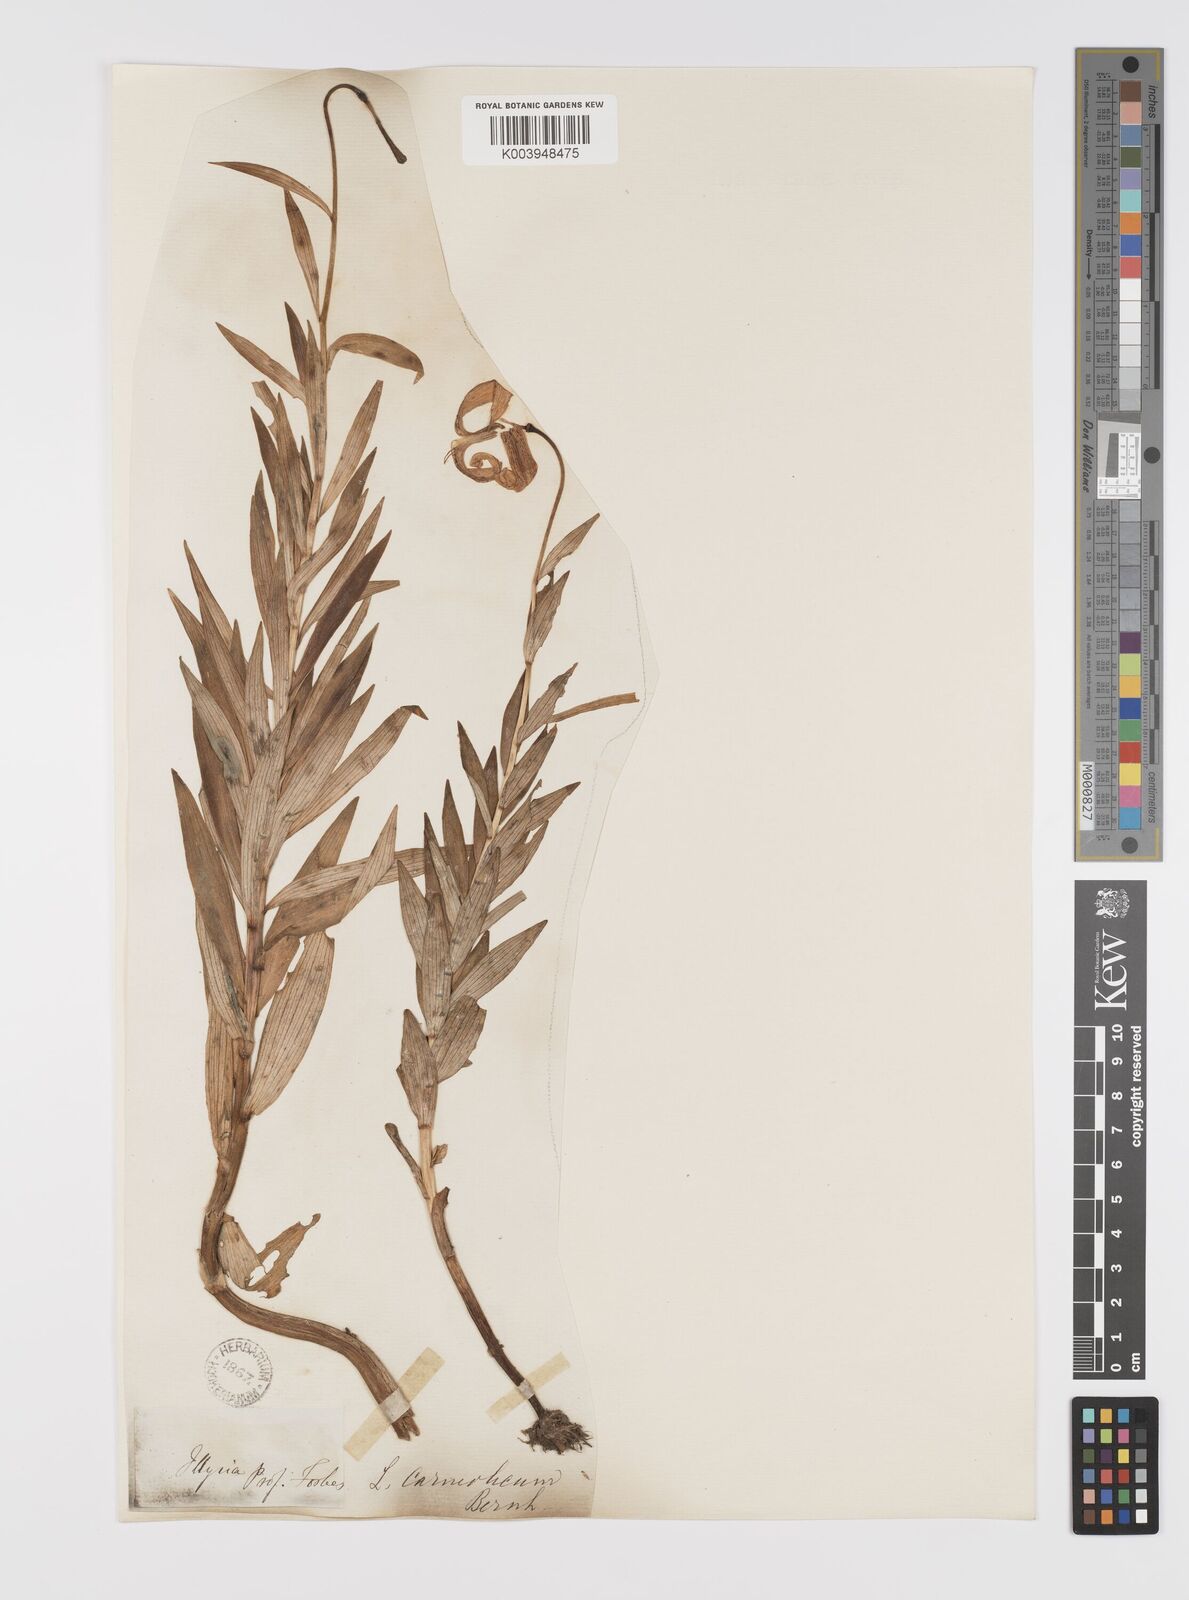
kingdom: Plantae
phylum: Tracheophyta
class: Liliopsida
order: Liliales
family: Liliaceae
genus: Lilium
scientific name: Lilium
